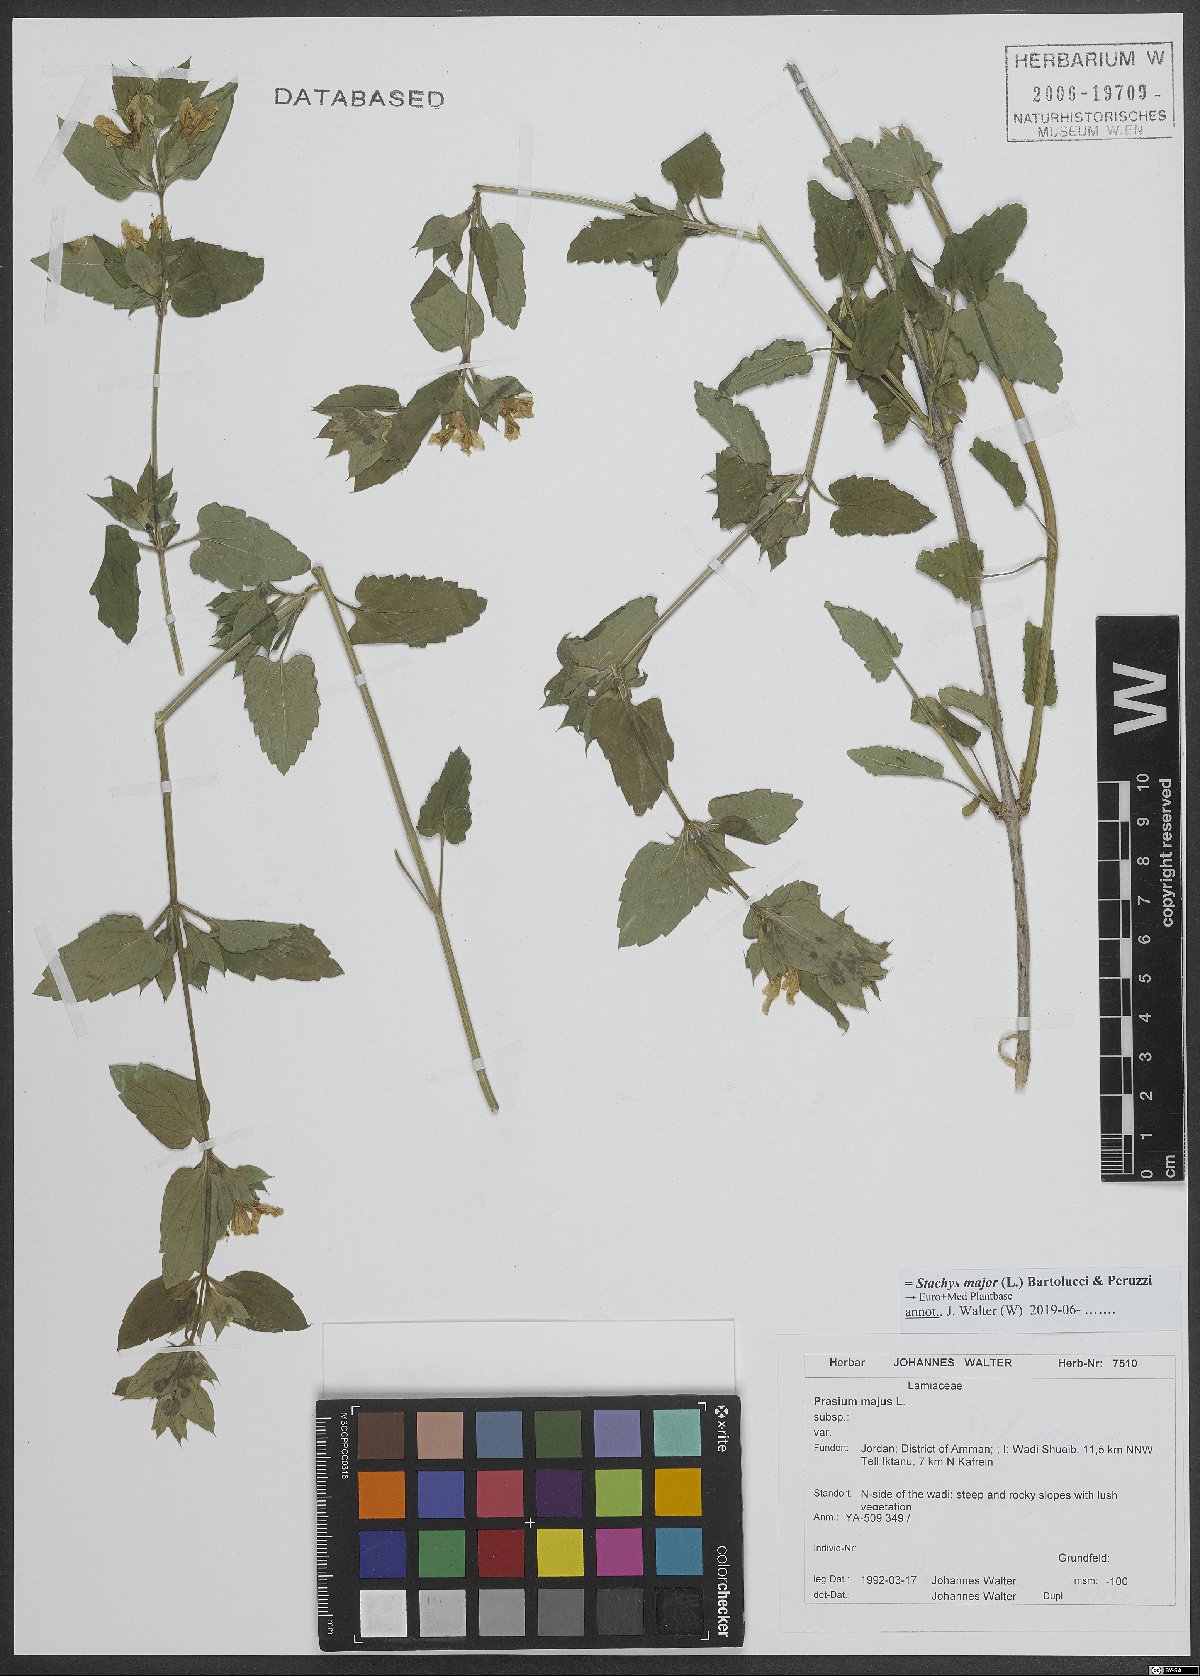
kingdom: Plantae
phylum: Tracheophyta
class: Magnoliopsida
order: Lamiales
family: Lamiaceae
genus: Prasium
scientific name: Prasium majus
